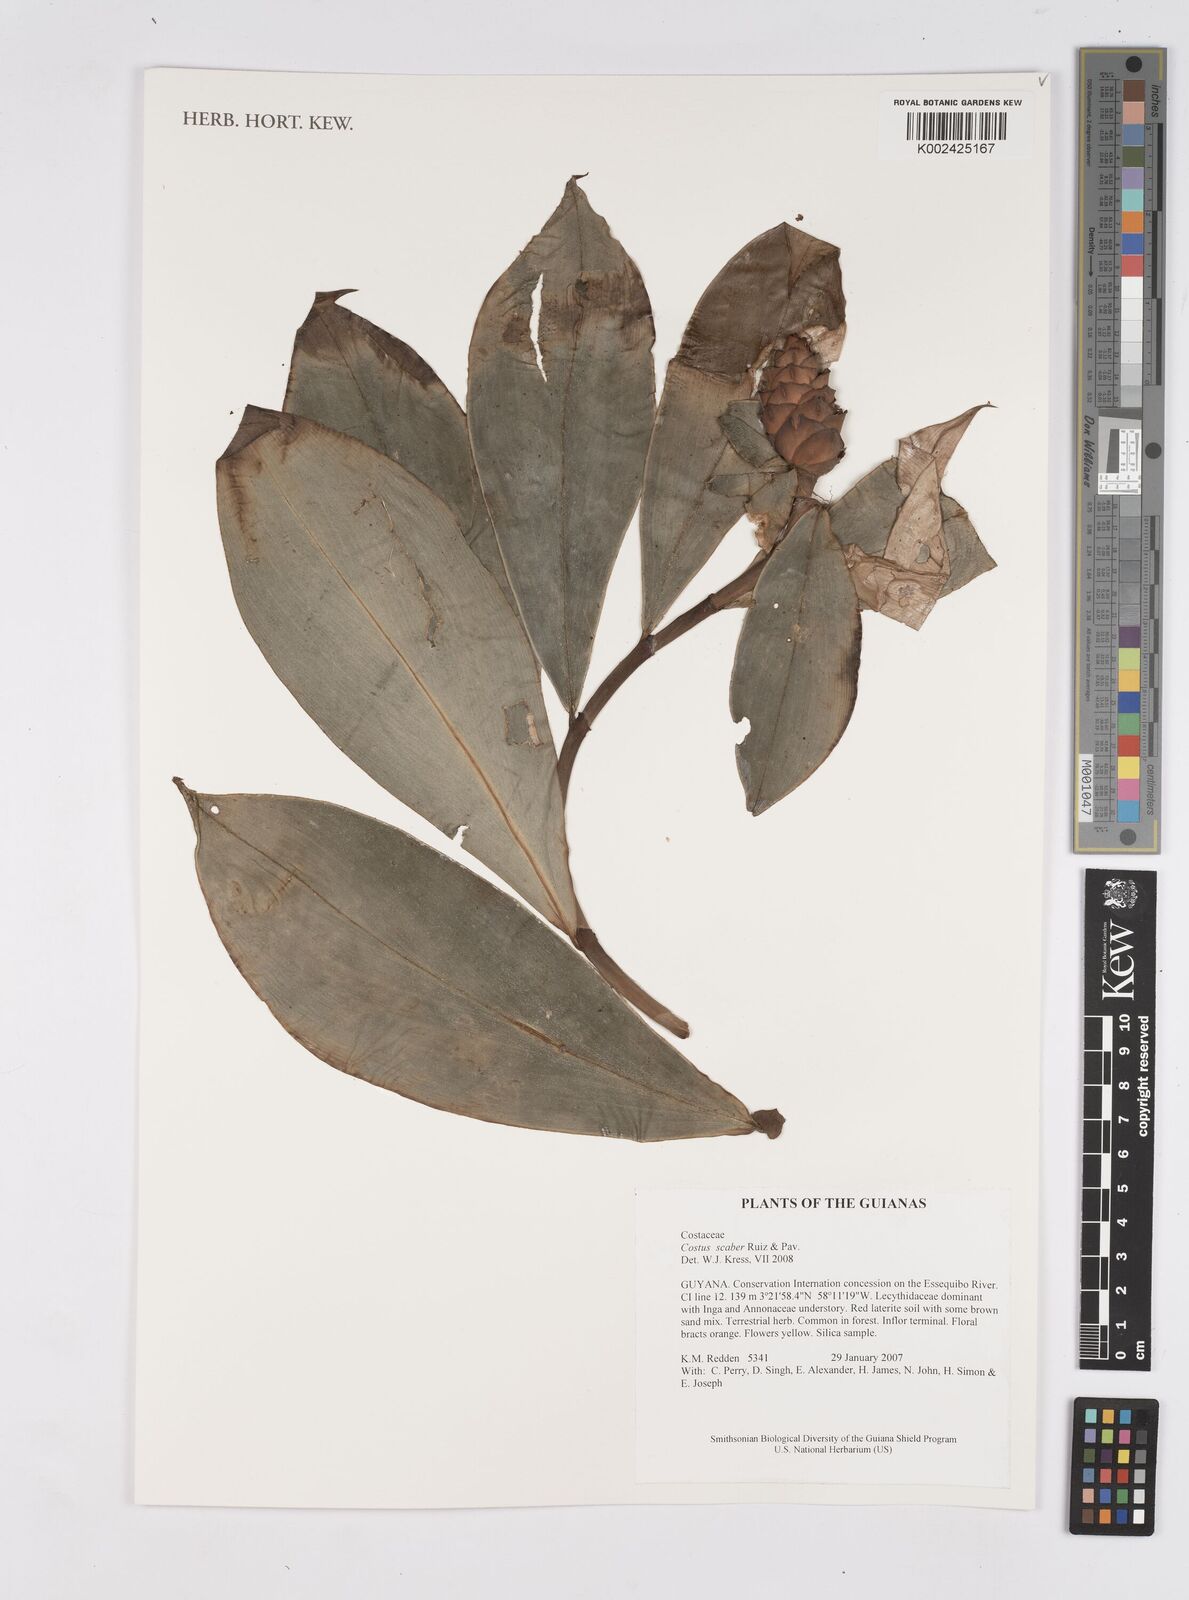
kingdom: Plantae
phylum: Tracheophyta
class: Liliopsida
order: Zingiberales
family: Costaceae
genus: Costus
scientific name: Costus scaber
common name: Spiral head ginger
